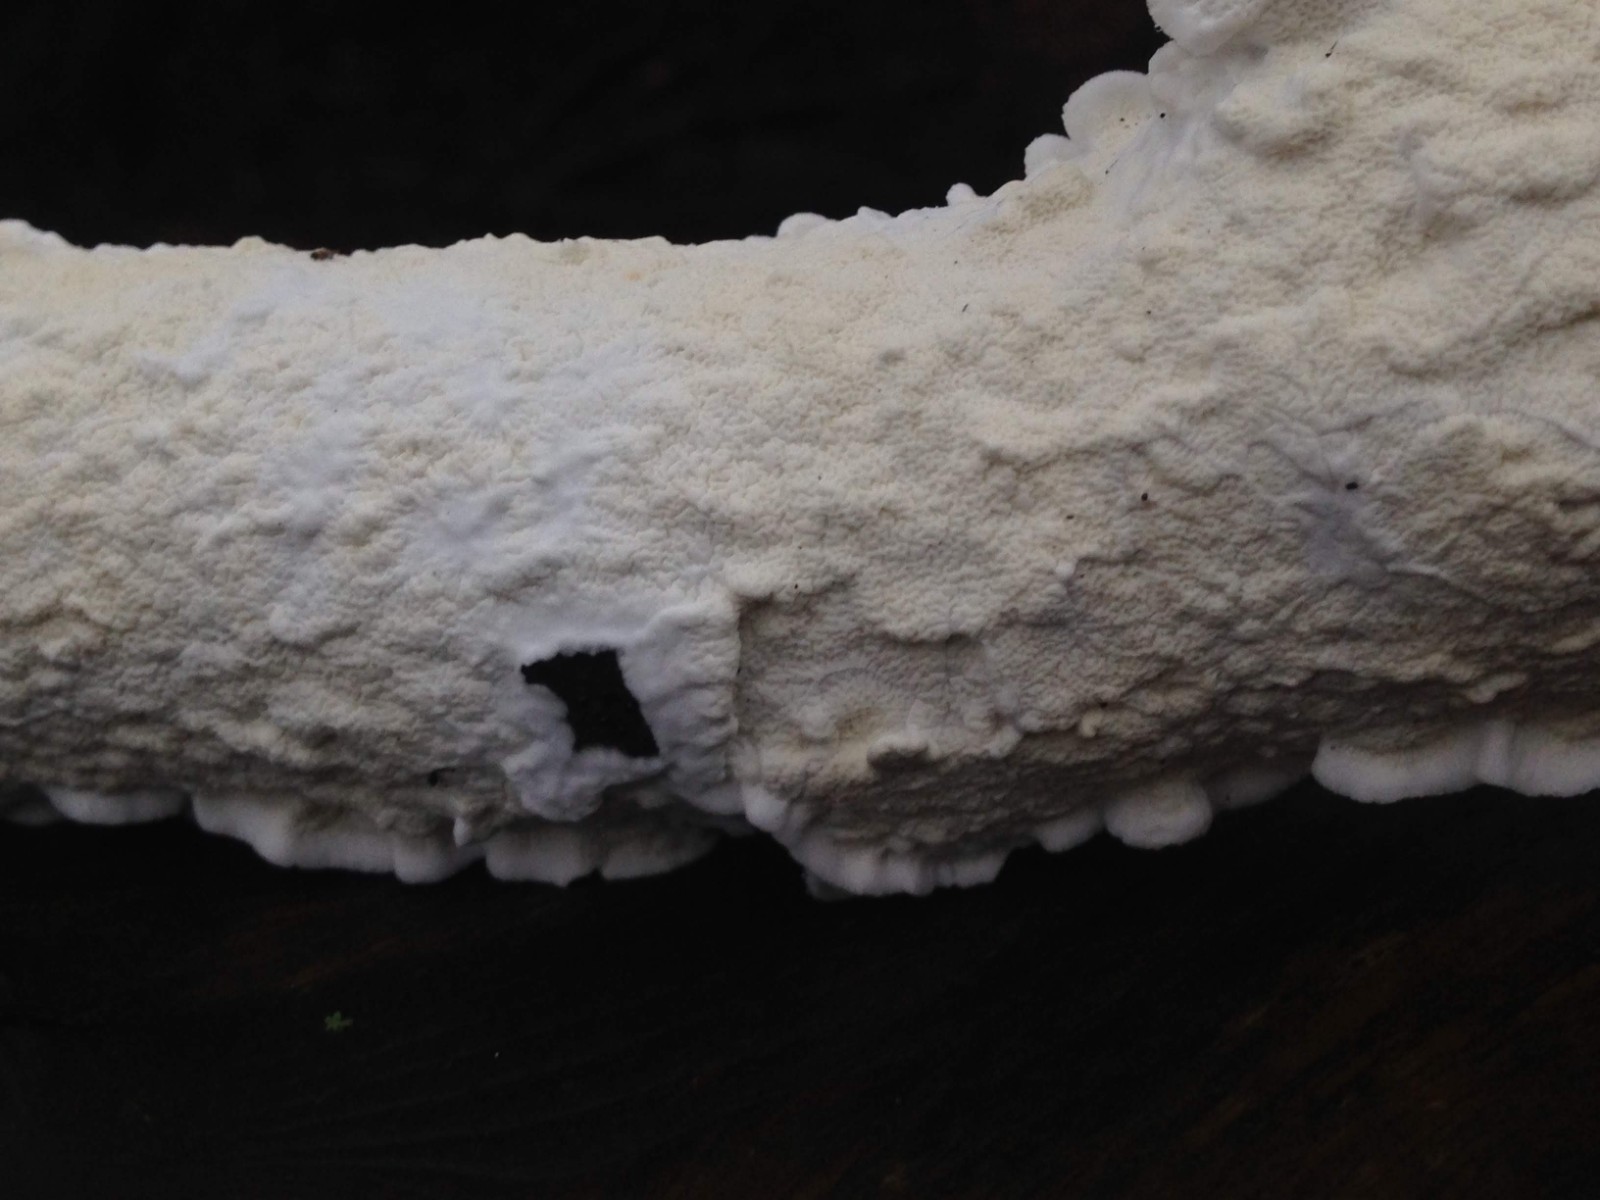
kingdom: Fungi
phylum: Basidiomycota
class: Agaricomycetes
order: Polyporales
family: Irpicaceae
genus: Byssomerulius
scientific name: Byssomerulius corium
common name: læder-åresvamp
